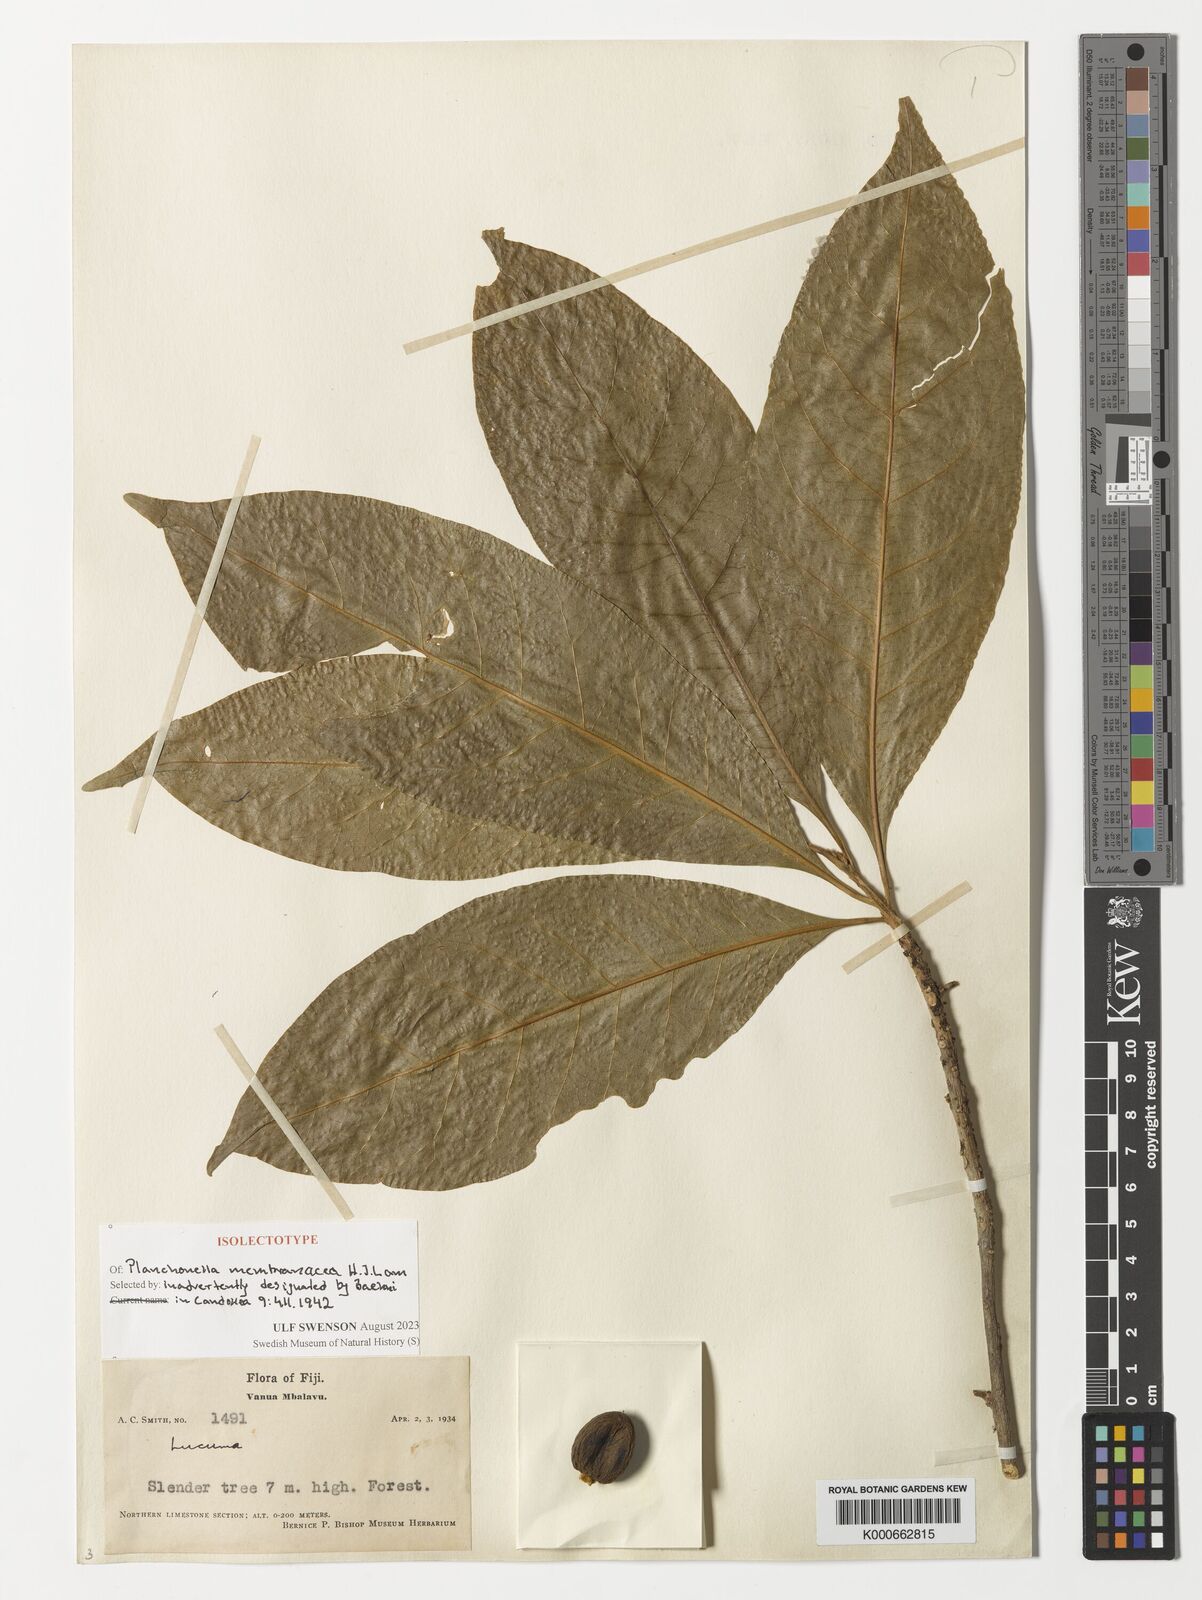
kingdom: Plantae
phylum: Tracheophyta
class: Magnoliopsida
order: Ericales
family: Sapotaceae
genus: Planchonella
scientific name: Planchonella membranacea
